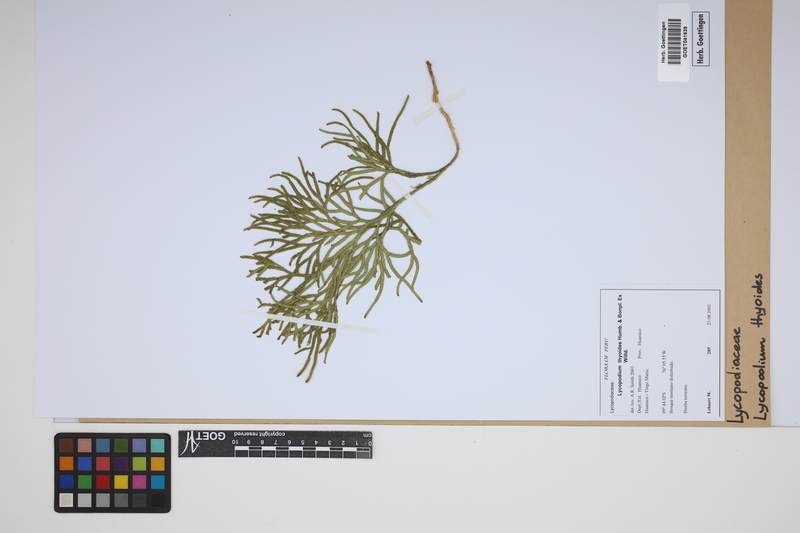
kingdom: Plantae
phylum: Tracheophyta
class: Lycopodiopsida
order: Lycopodiales
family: Lycopodiaceae
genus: Diphasiastrum
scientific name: Diphasiastrum thyoides
